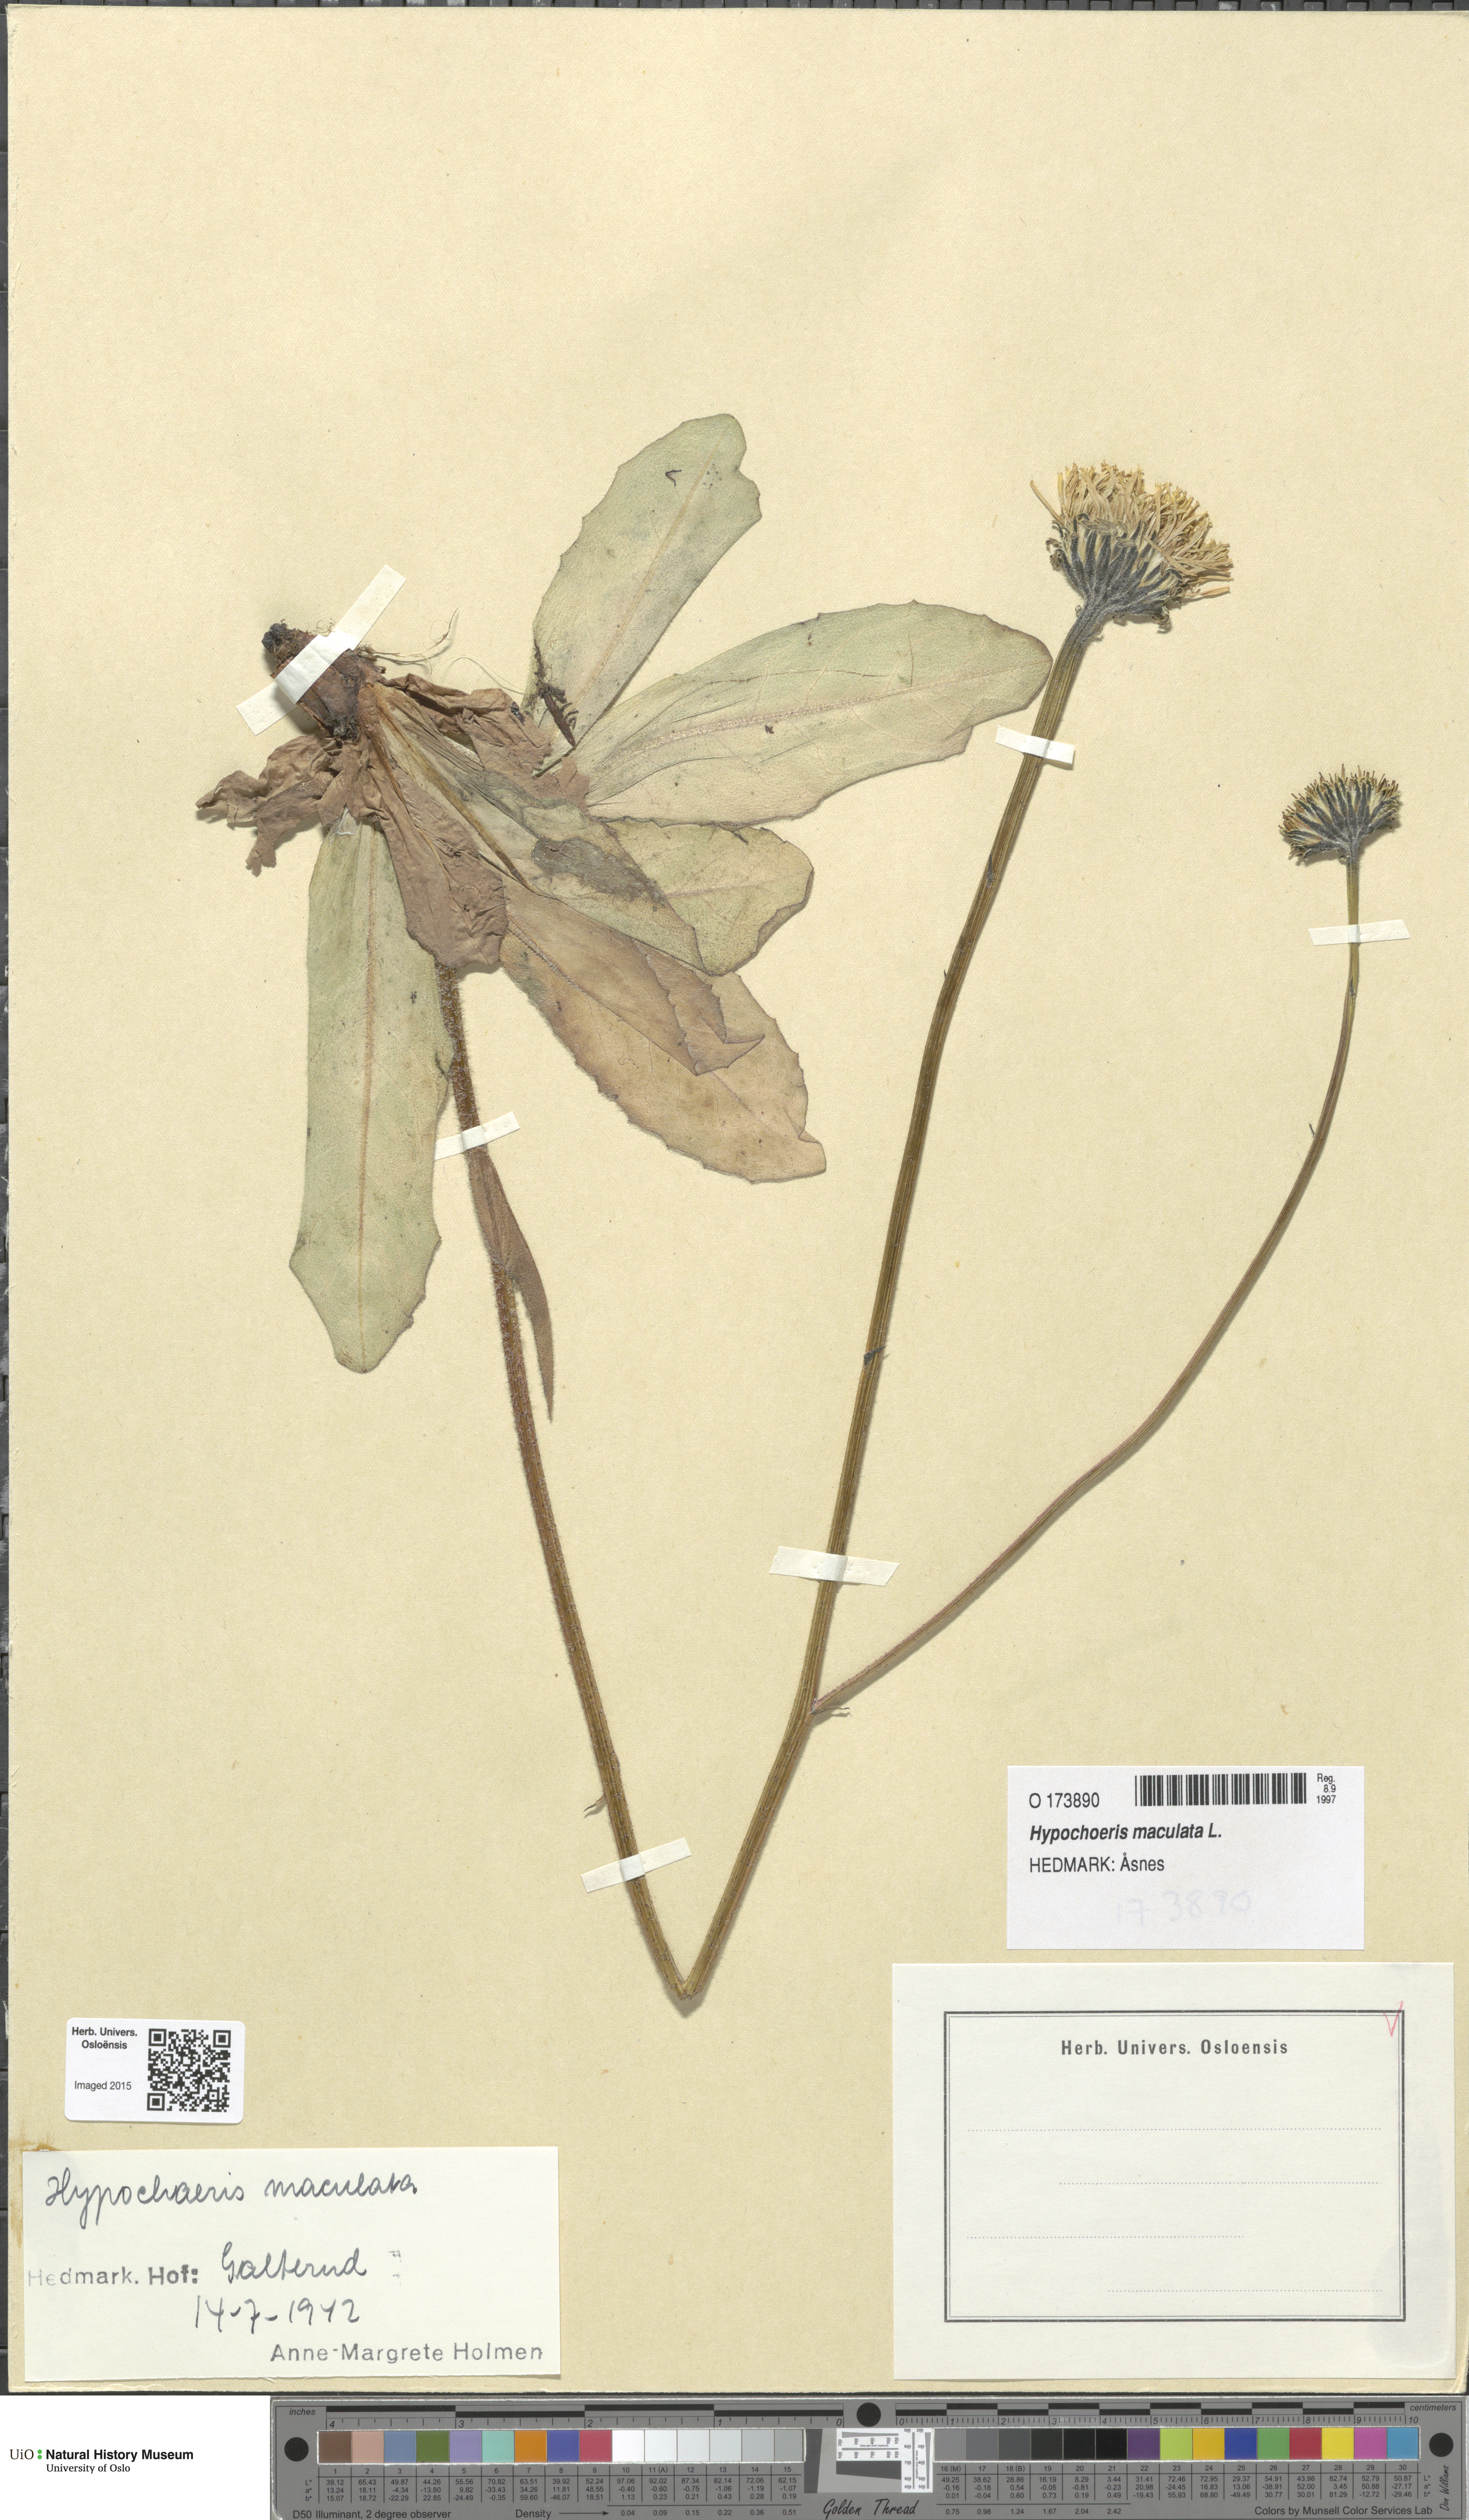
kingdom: Plantae
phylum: Tracheophyta
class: Magnoliopsida
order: Asterales
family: Asteraceae
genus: Trommsdorffia
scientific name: Trommsdorffia maculata
